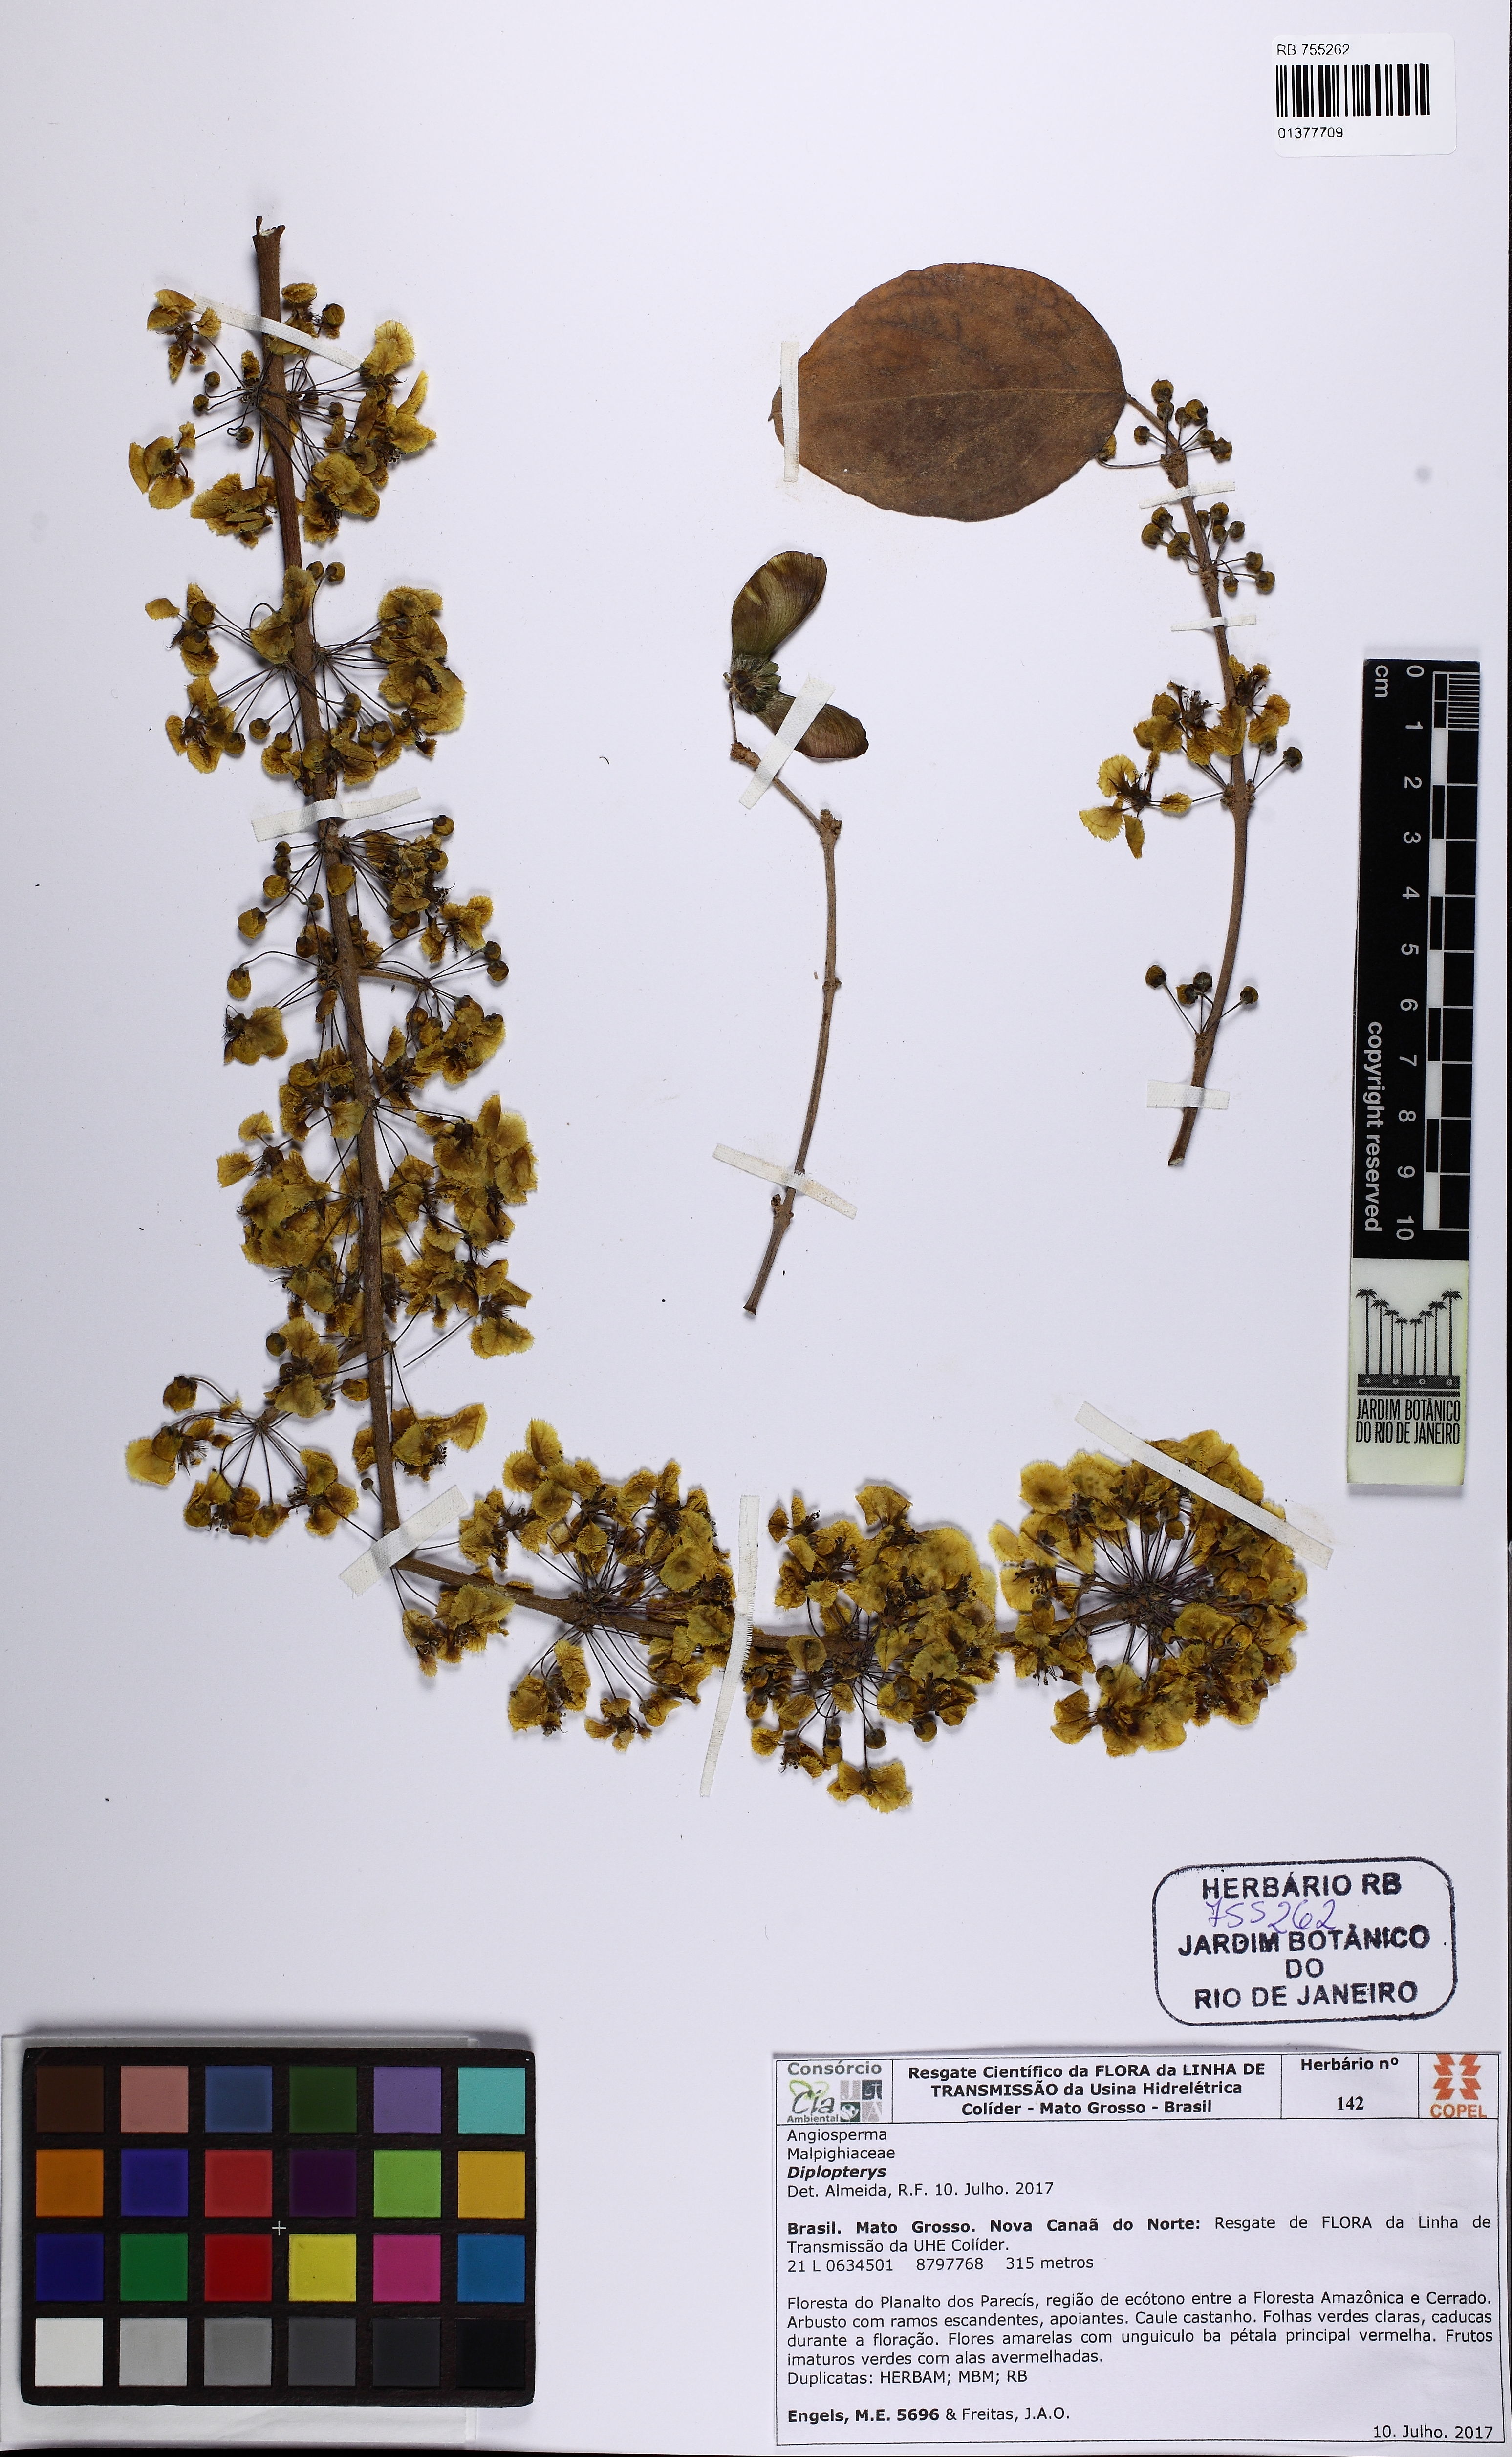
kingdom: Plantae
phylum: Tracheophyta
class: Magnoliopsida
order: Malpighiales
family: Malpighiaceae
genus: Diplopterys
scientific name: Diplopterys
